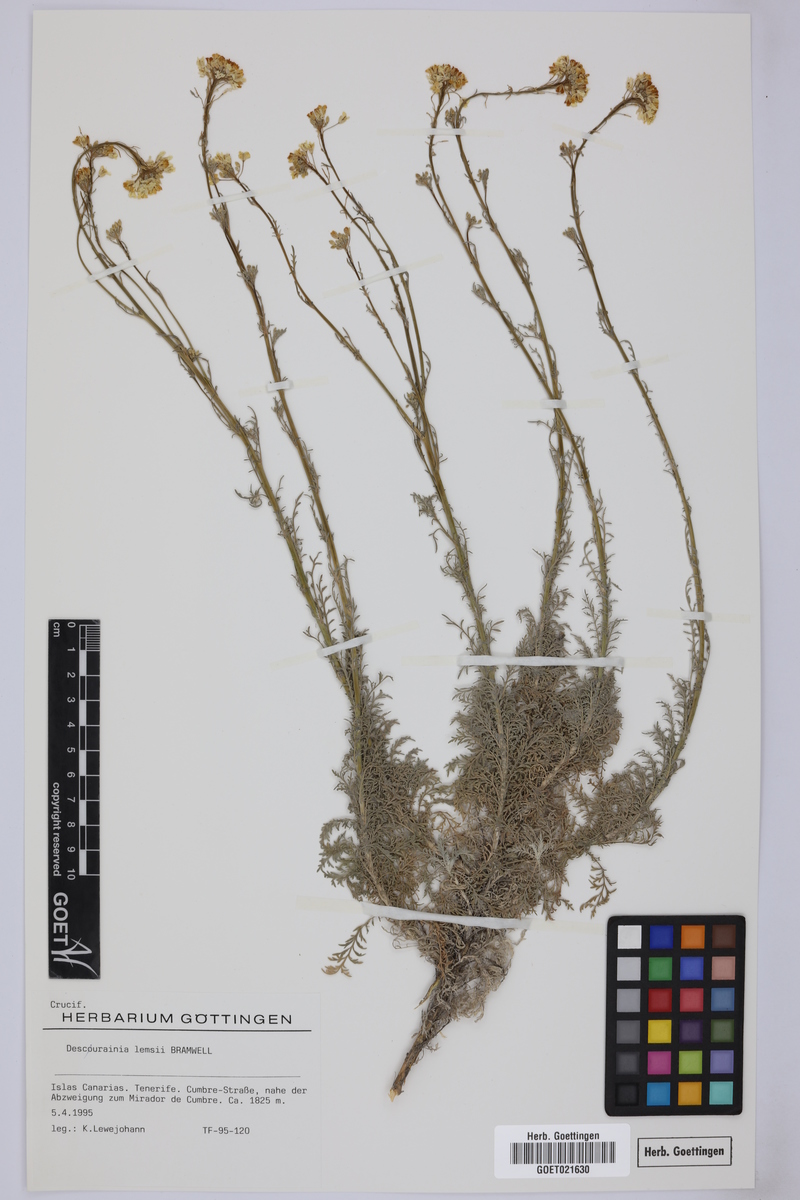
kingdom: Plantae
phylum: Tracheophyta
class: Magnoliopsida
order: Brassicales
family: Brassicaceae
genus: Descurainia
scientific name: Descurainia lemsii
